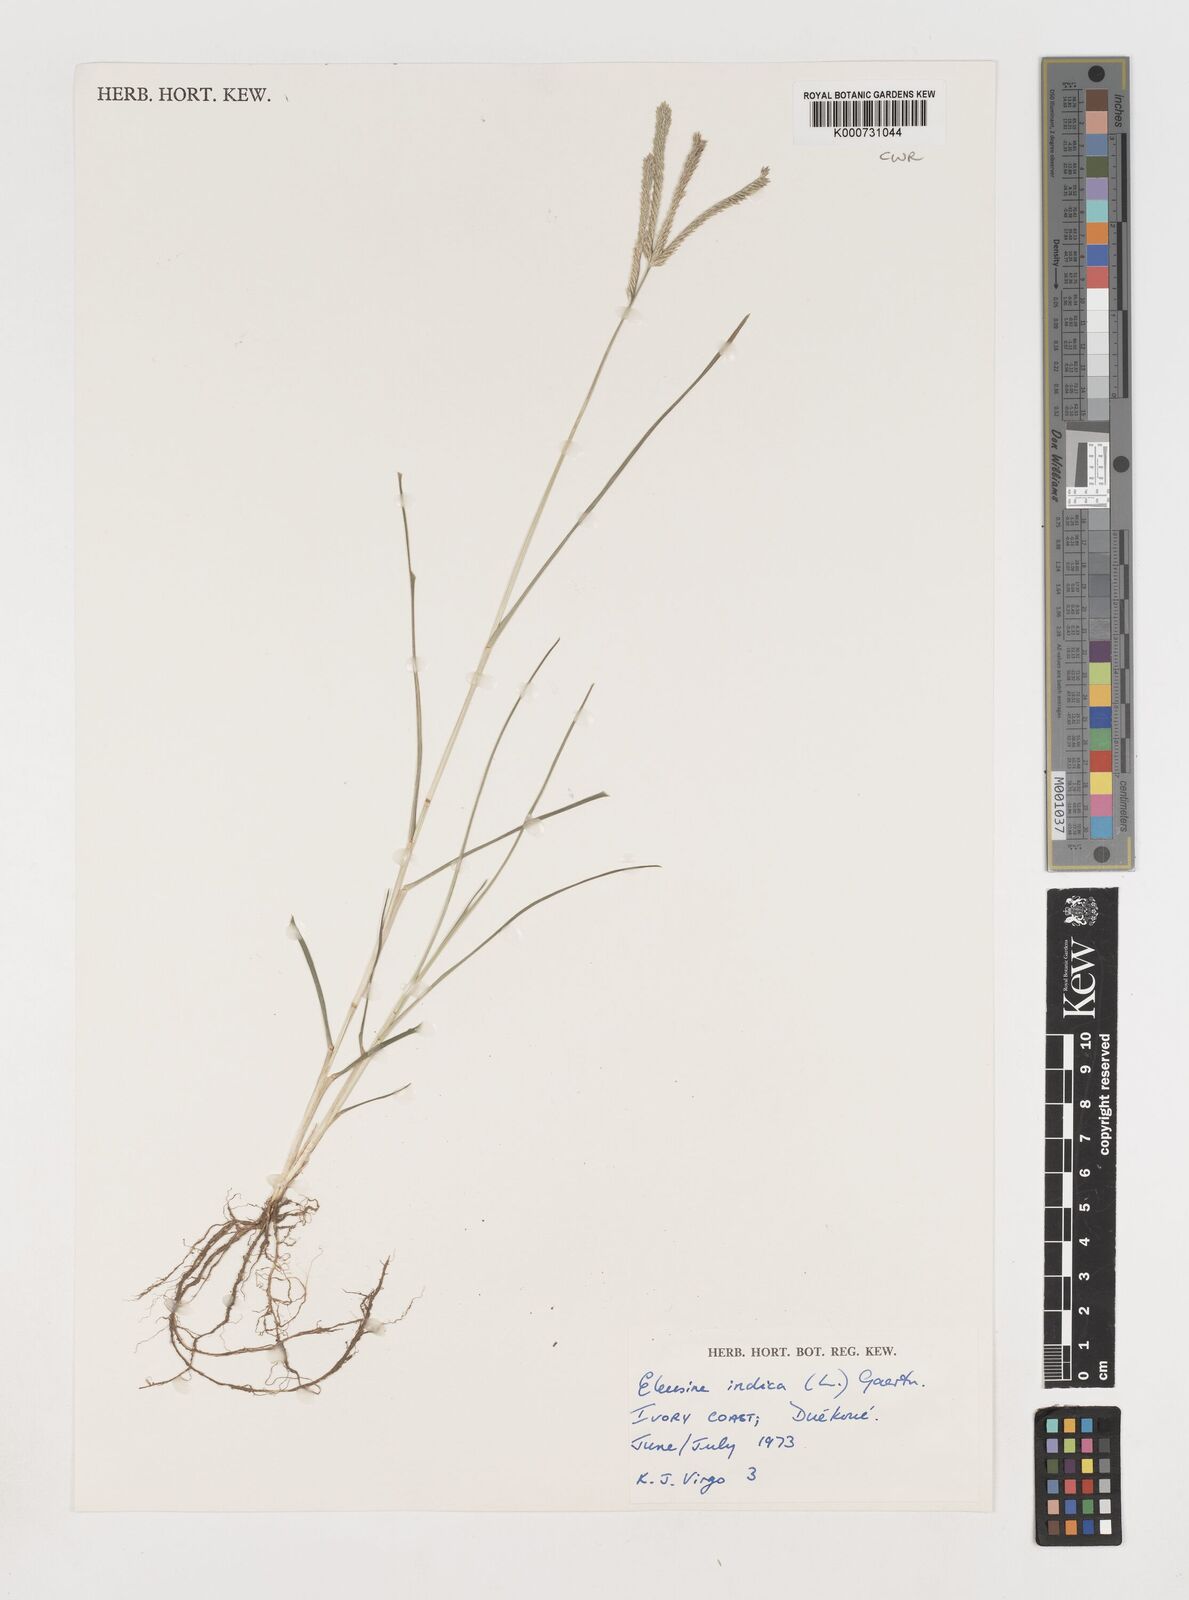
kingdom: Plantae
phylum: Tracheophyta
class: Liliopsida
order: Poales
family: Poaceae
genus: Eleusine
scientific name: Eleusine indica
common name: Yard-grass
